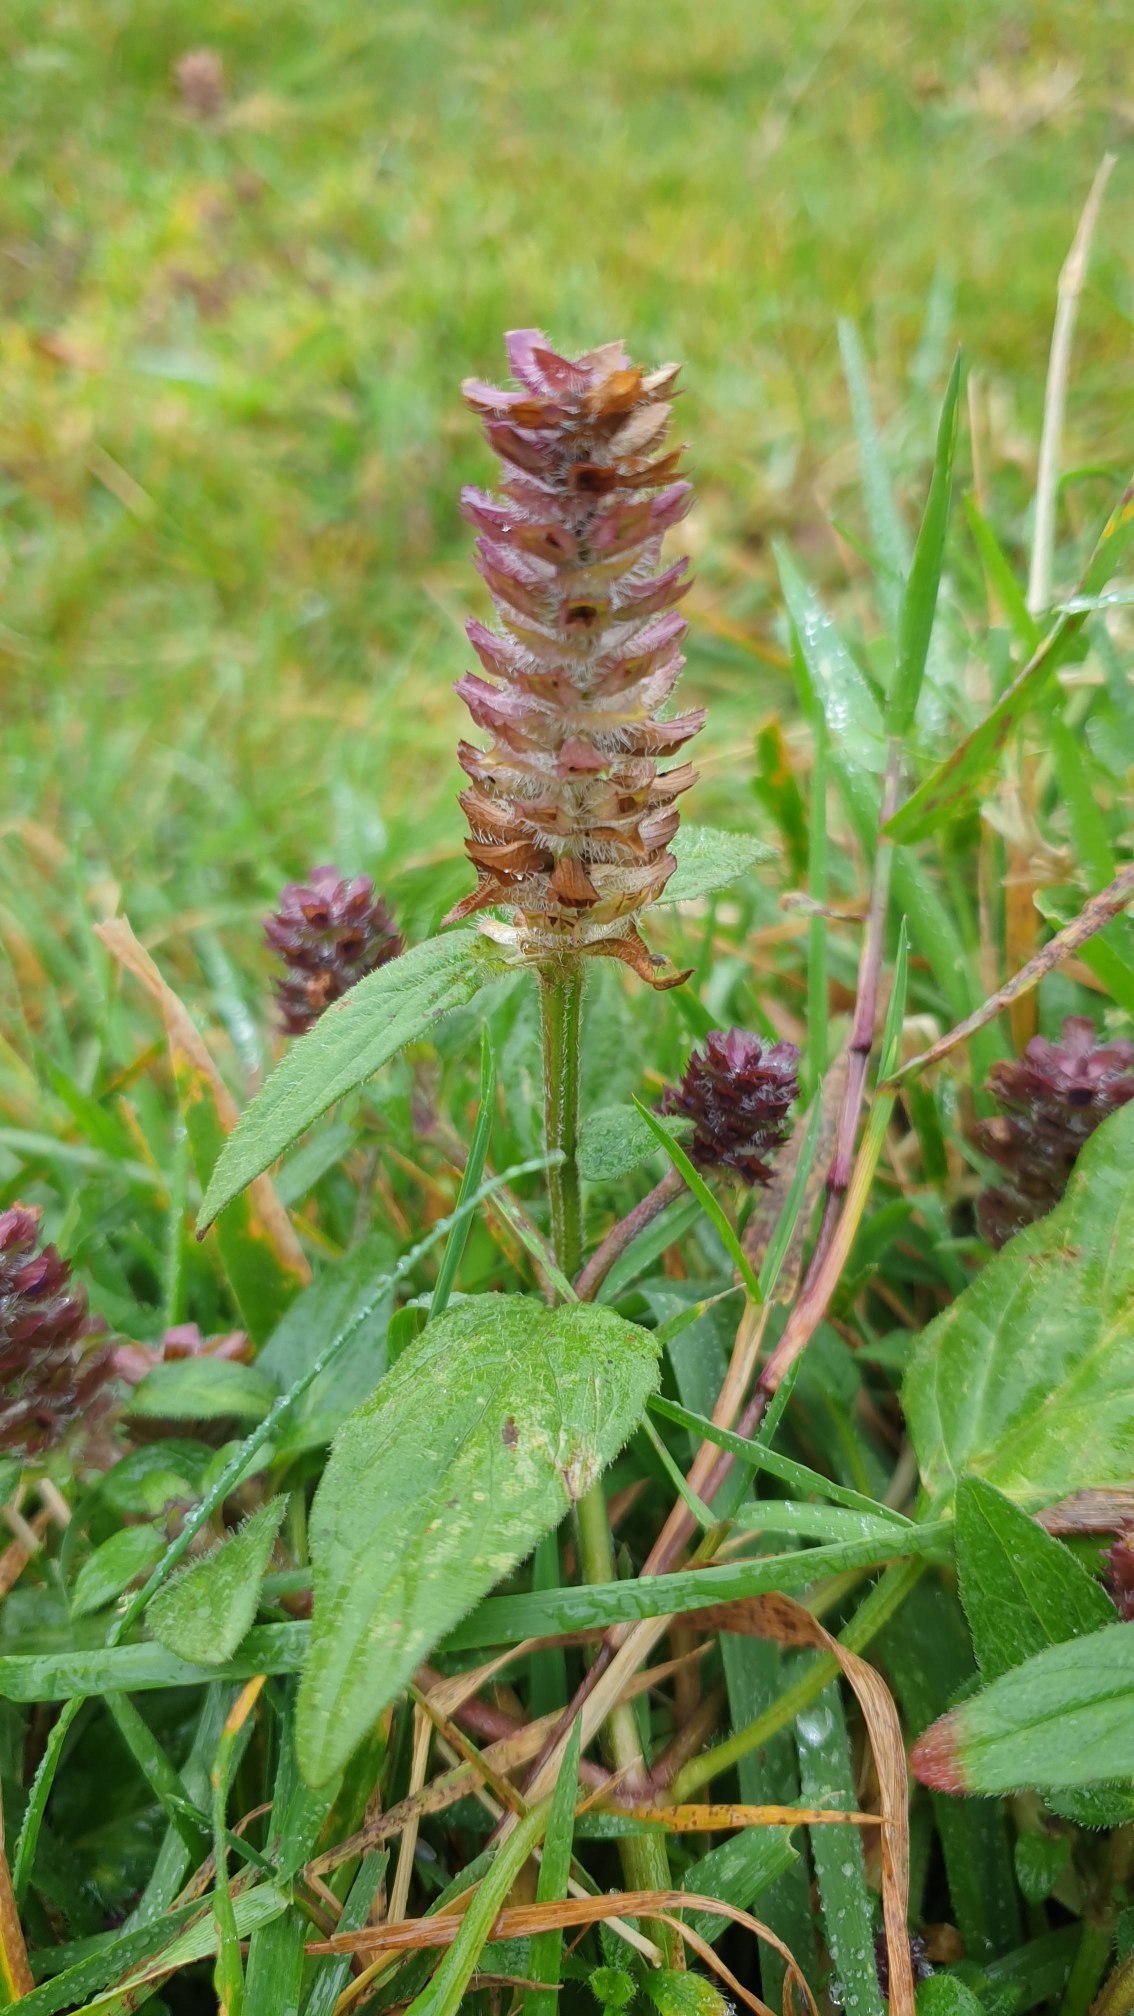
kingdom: Plantae
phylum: Tracheophyta
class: Magnoliopsida
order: Lamiales
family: Lamiaceae
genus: Prunella
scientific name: Prunella vulgaris
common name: Almindelig brunelle
